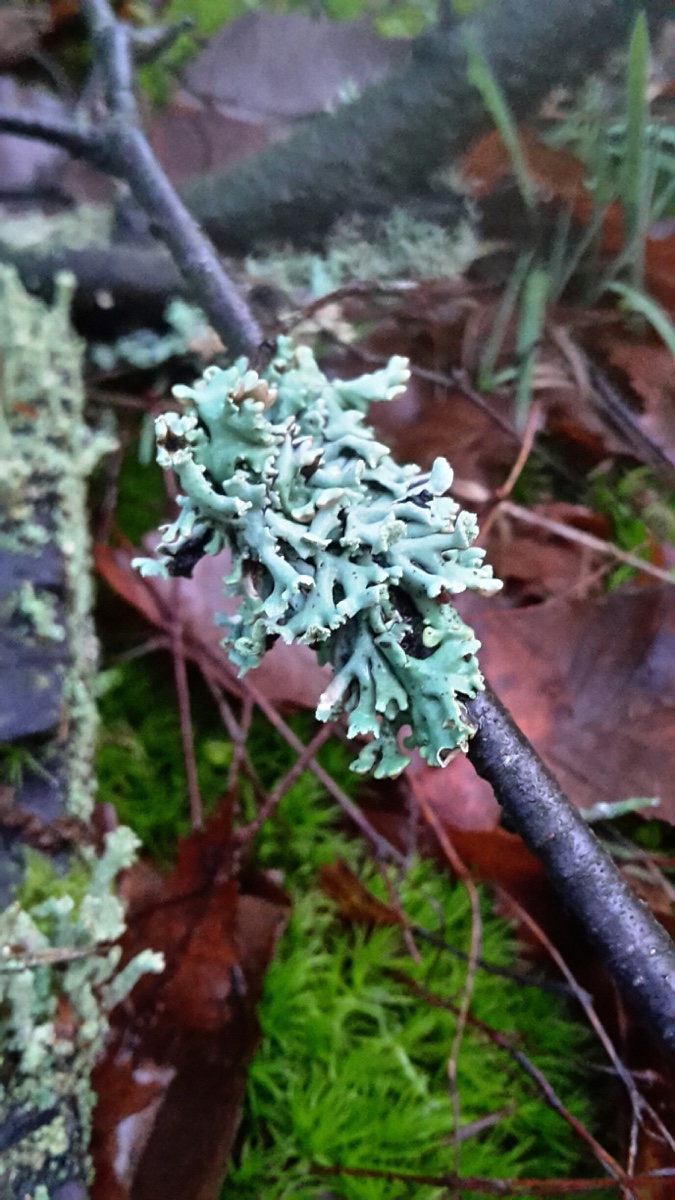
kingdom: Fungi
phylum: Ascomycota
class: Lecanoromycetes
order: Lecanorales
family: Parmeliaceae
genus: Hypogymnia
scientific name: Hypogymnia physodes
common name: almindelig kvistlav
